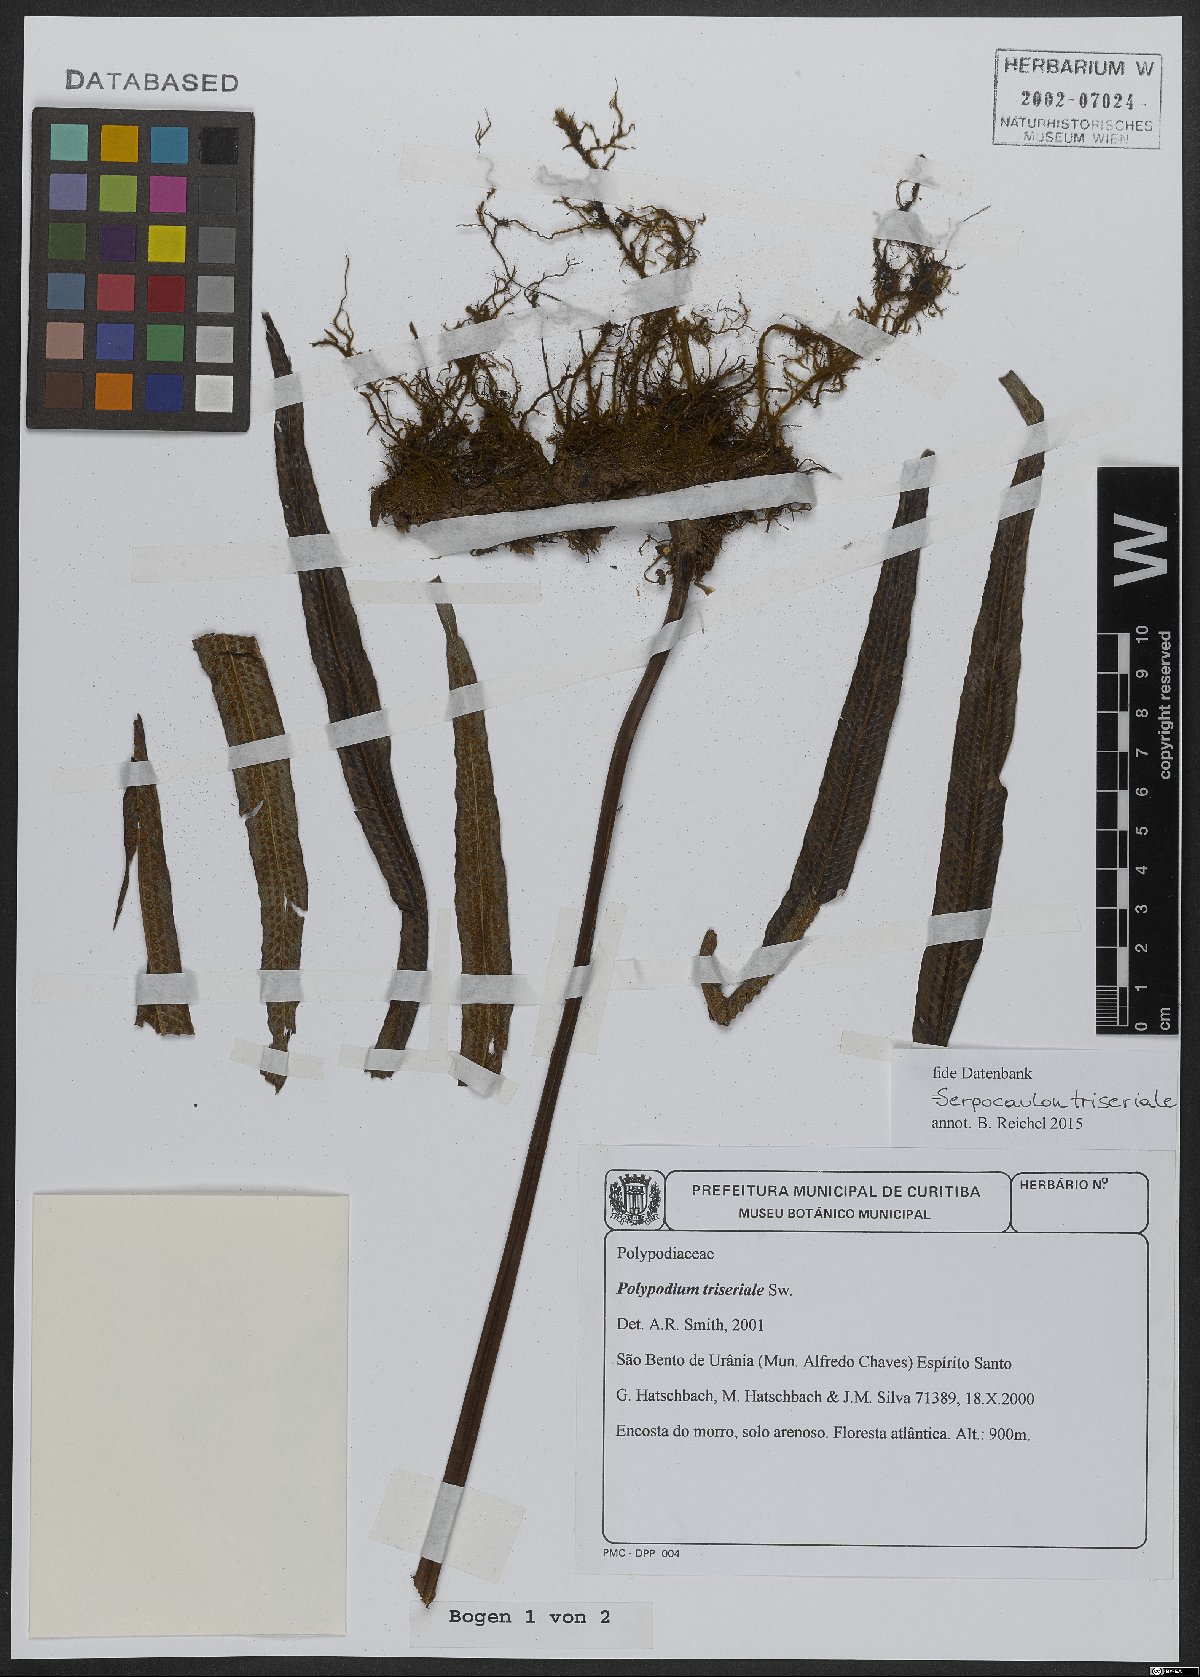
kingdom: Plantae
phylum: Tracheophyta
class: Polypodiopsida
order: Polypodiales
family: Polypodiaceae
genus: Serpocaulon
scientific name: Serpocaulon triseriale
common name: Angle-vein fern
